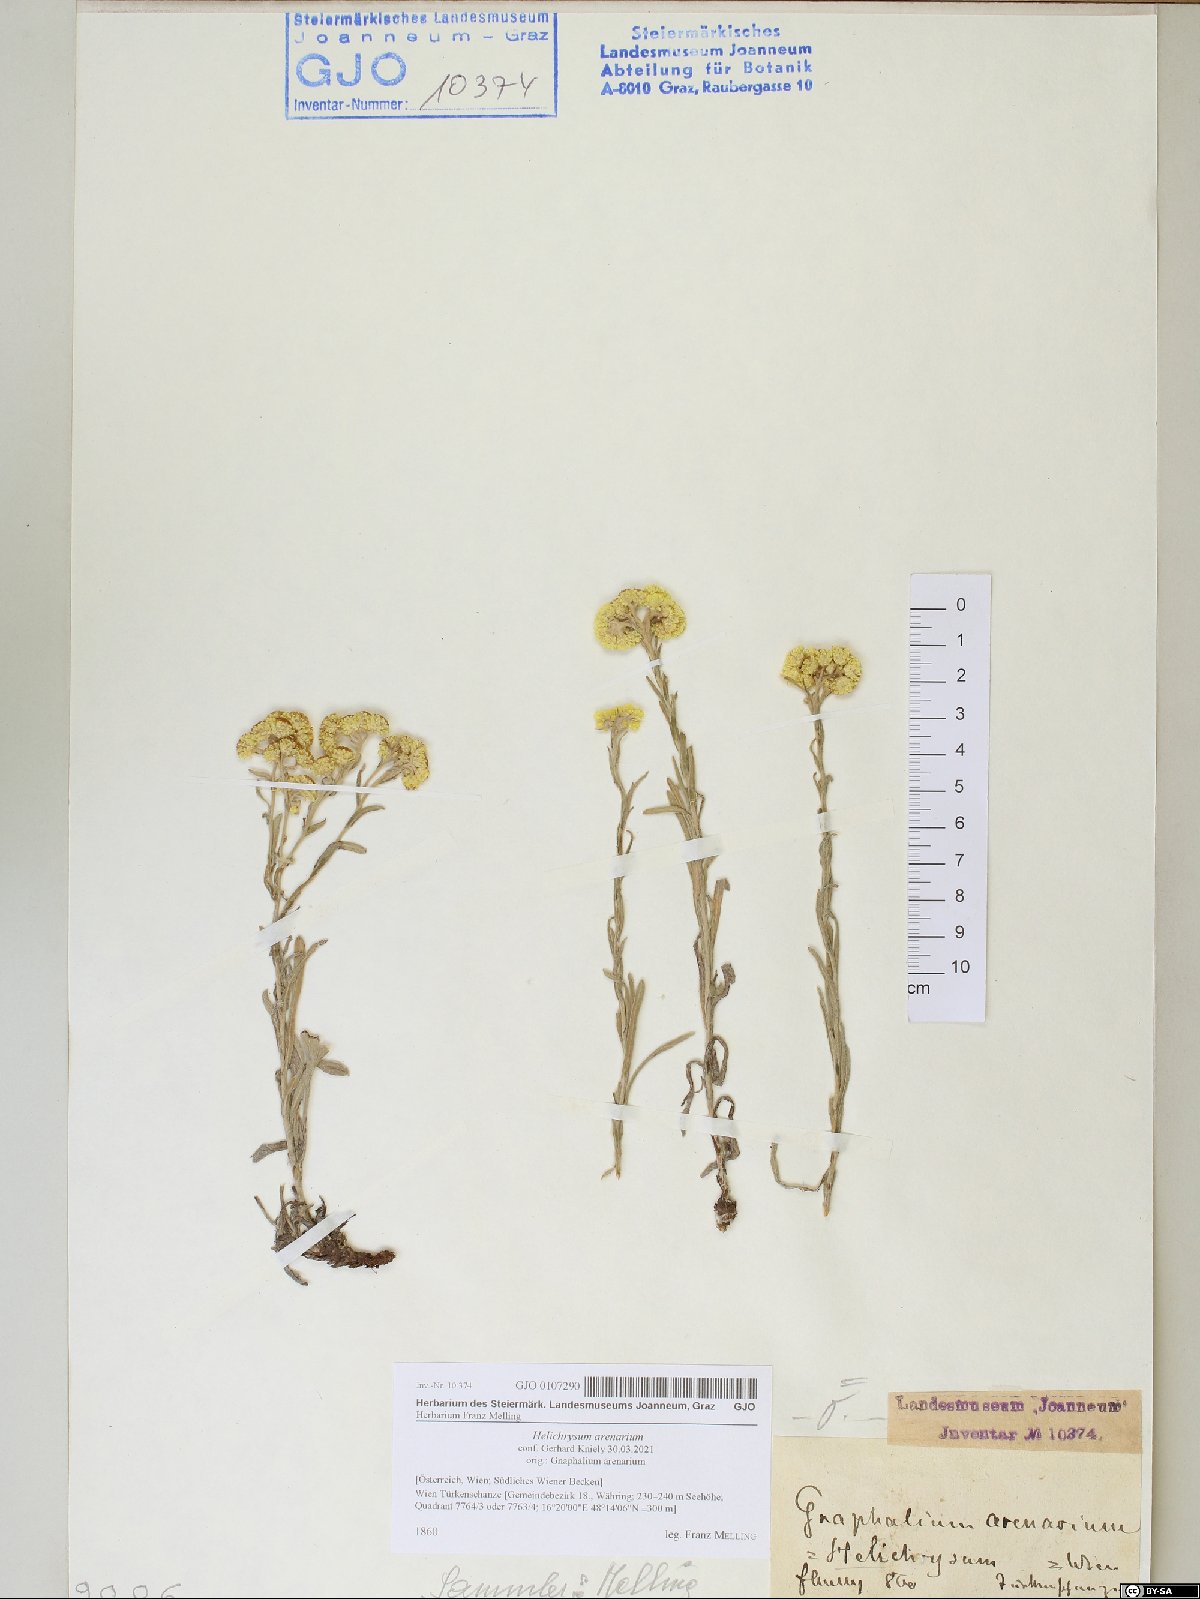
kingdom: Plantae
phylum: Tracheophyta
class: Magnoliopsida
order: Asterales
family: Asteraceae
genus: Helichrysum
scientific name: Helichrysum arenarium
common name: Strawflower
